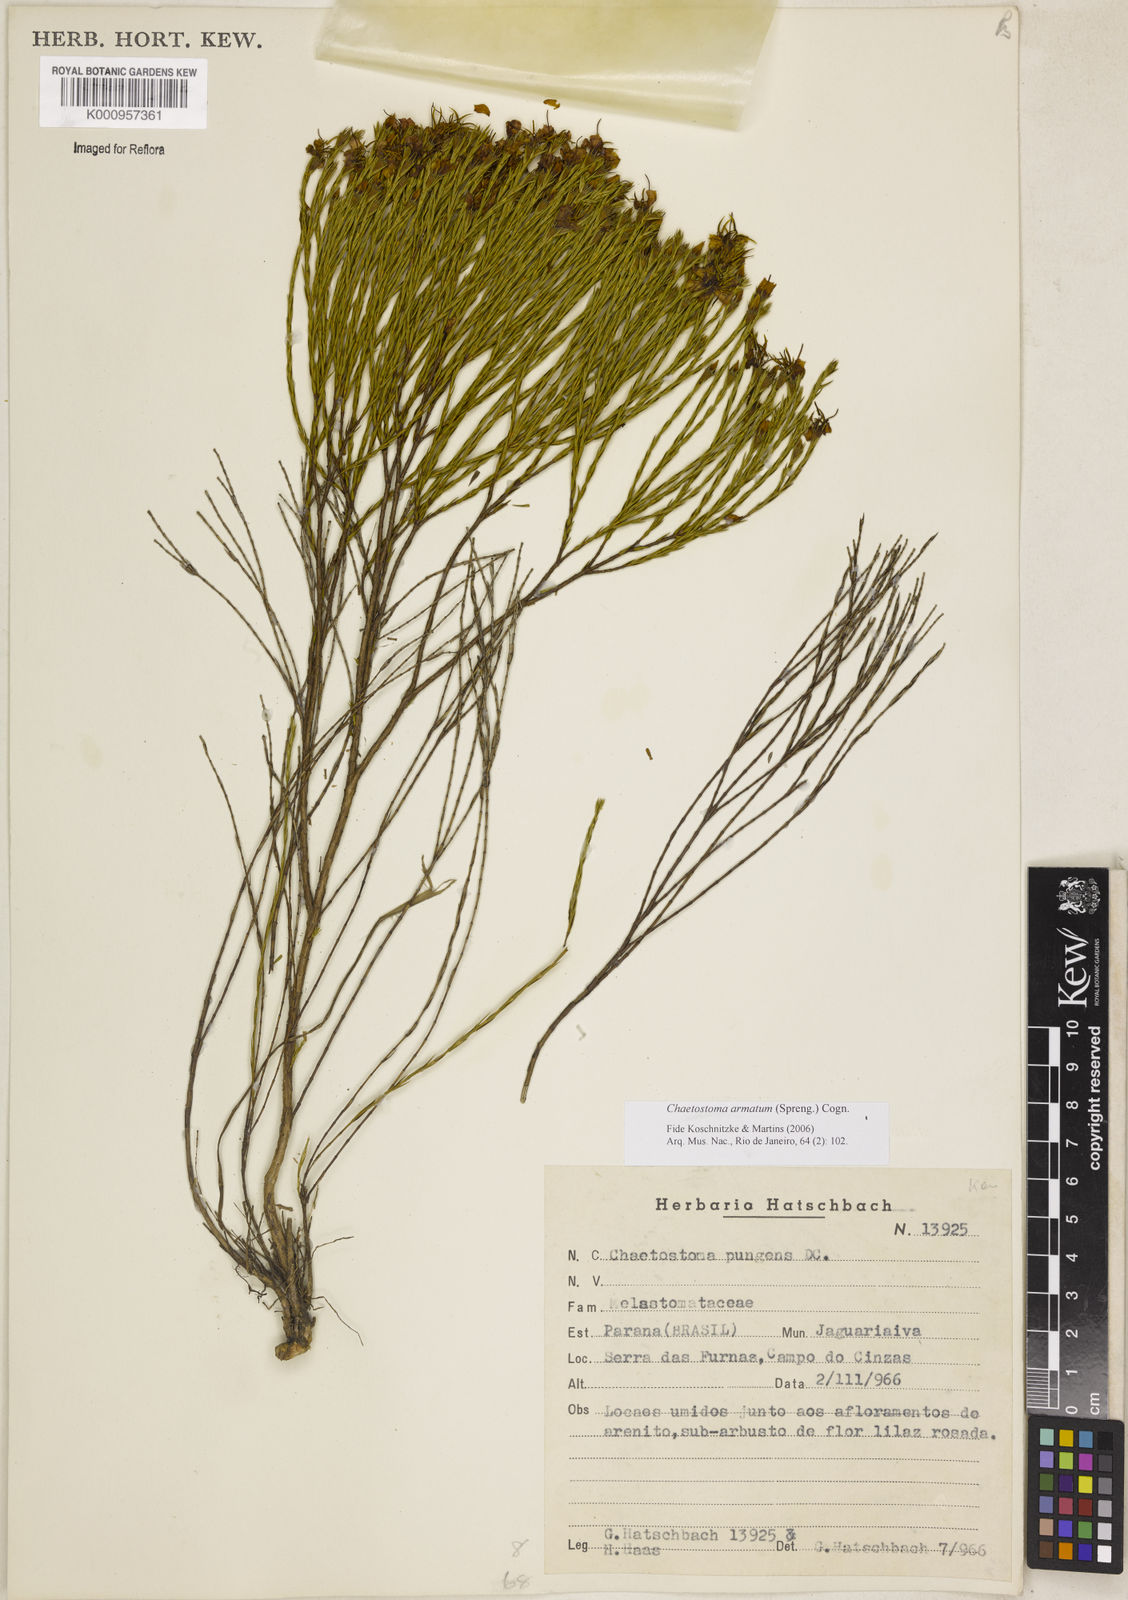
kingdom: Plantae
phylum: Tracheophyta
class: Magnoliopsida
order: Myrtales
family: Melastomataceae
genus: Microlicia
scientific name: Microlicia armata
